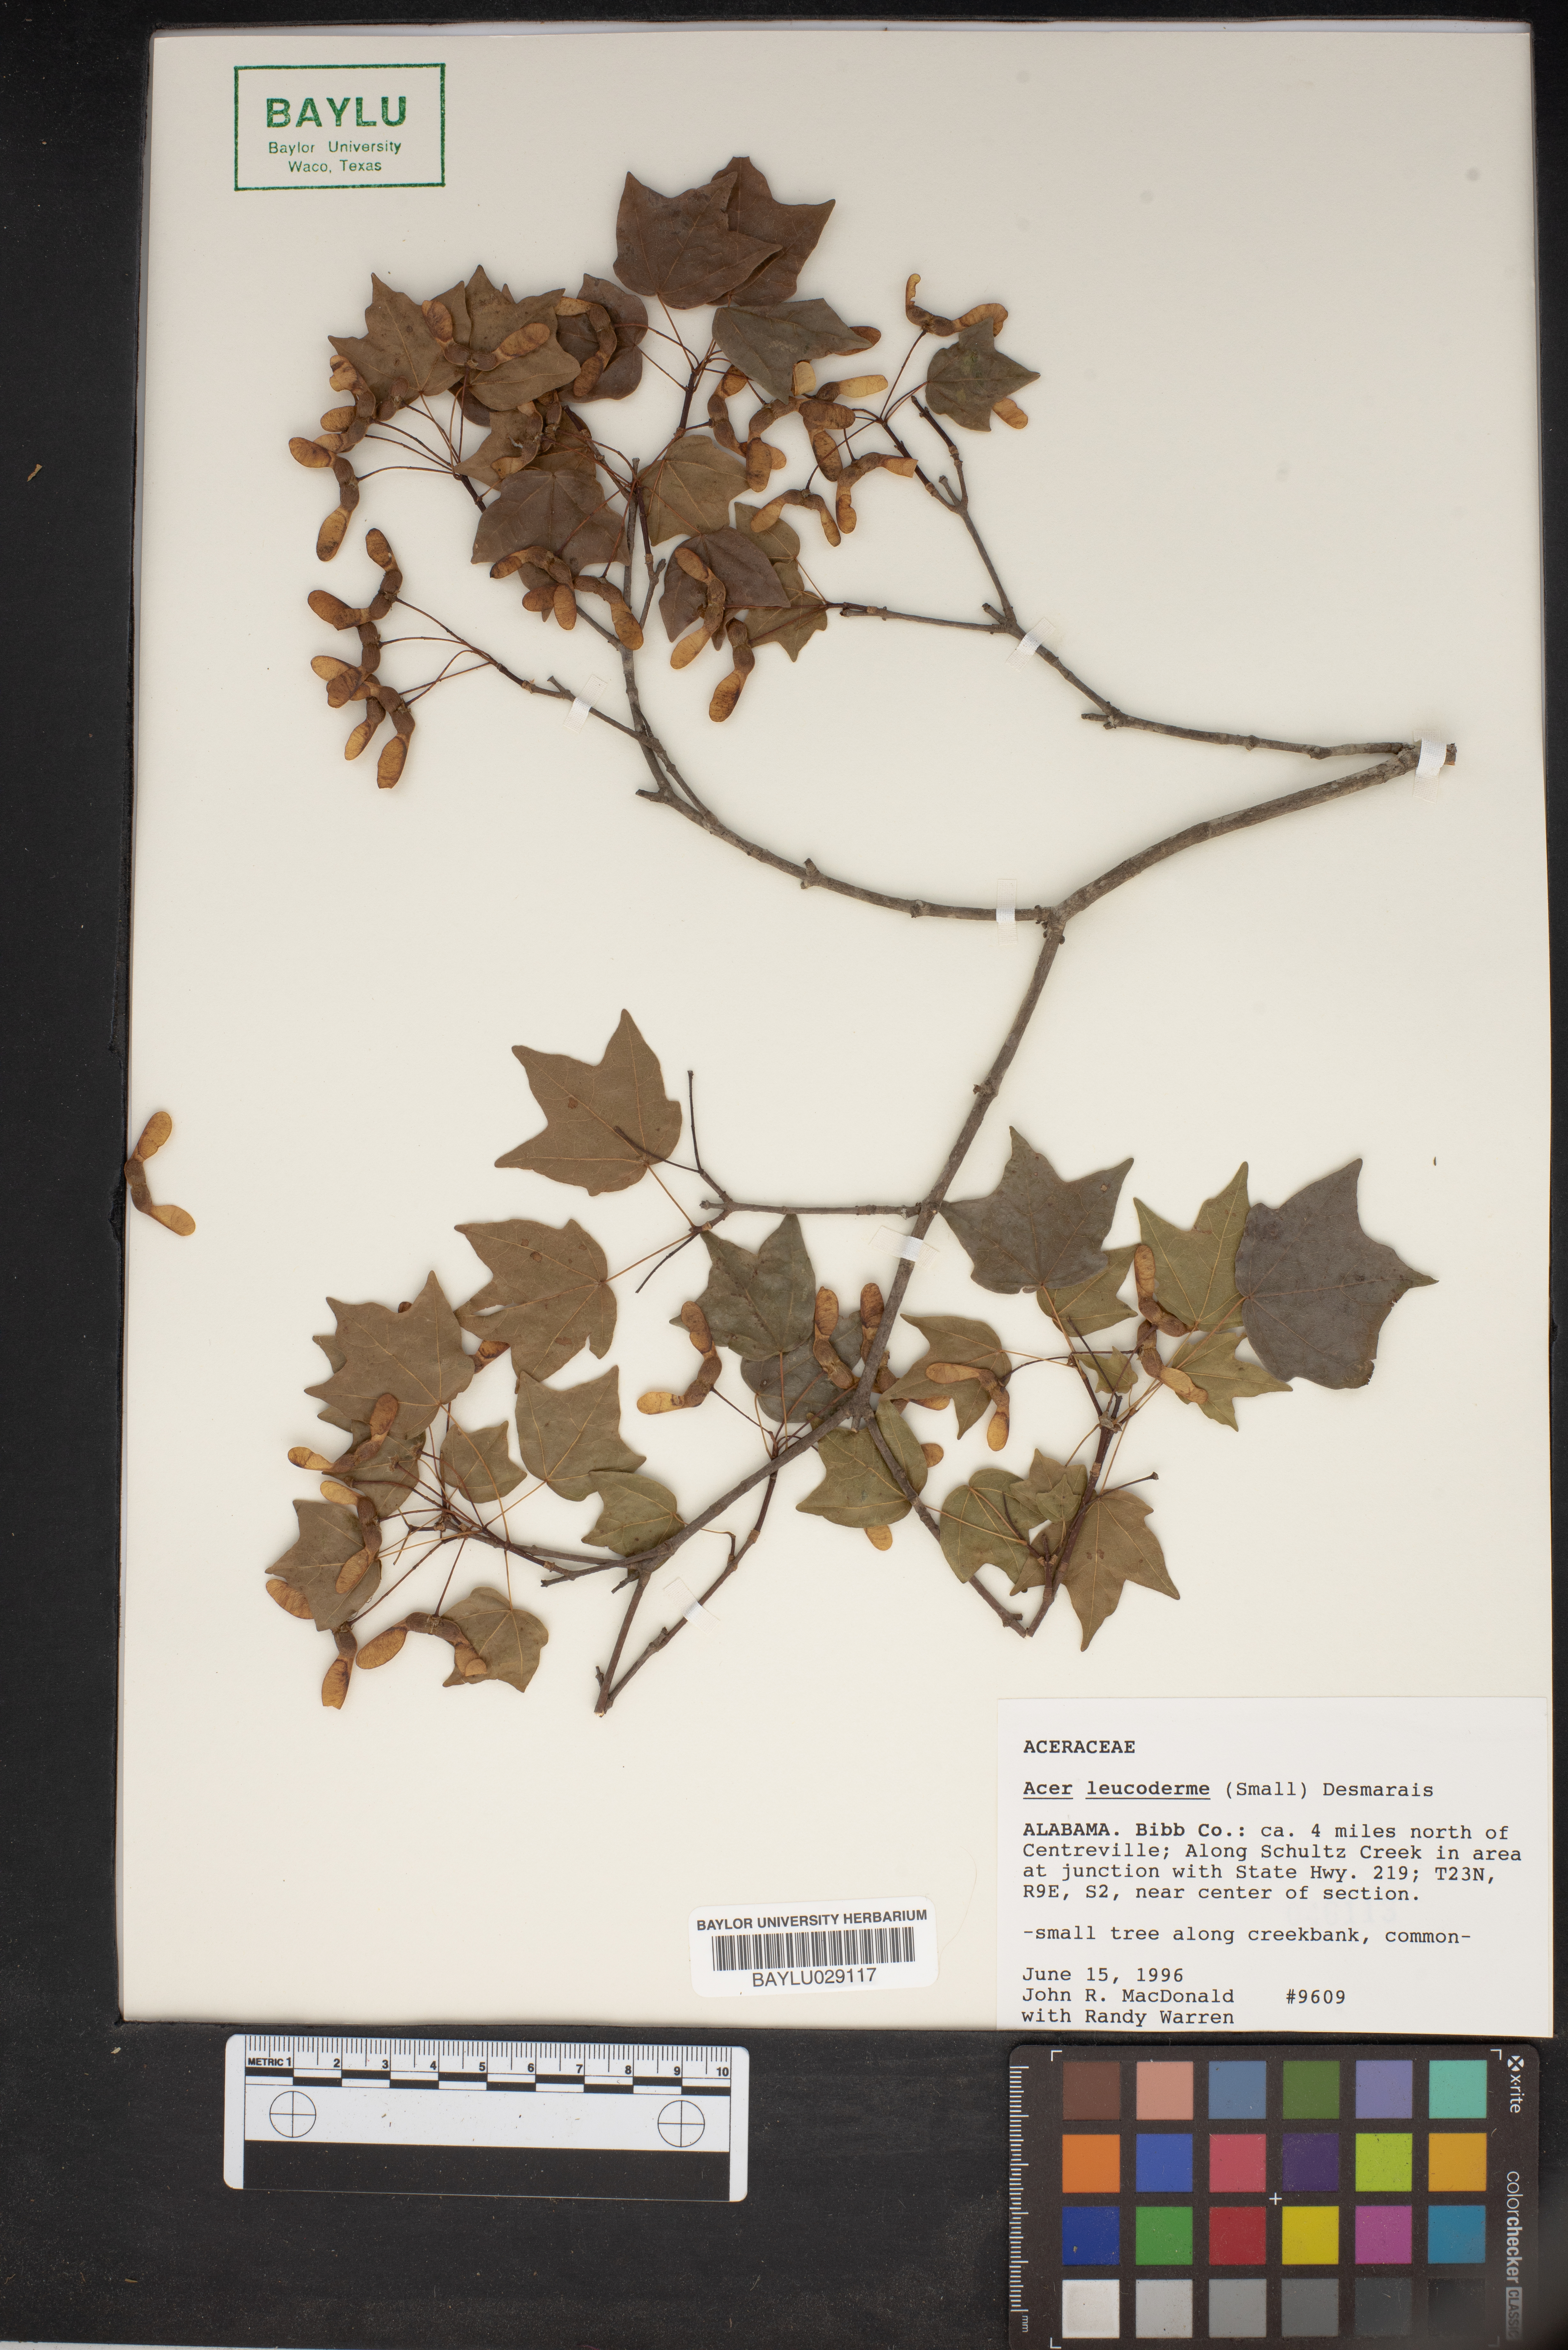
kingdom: Plantae
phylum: Tracheophyta
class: Magnoliopsida
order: Sapindales
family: Sapindaceae
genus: Acer
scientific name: Acer leucoderme
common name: Chalk maple
